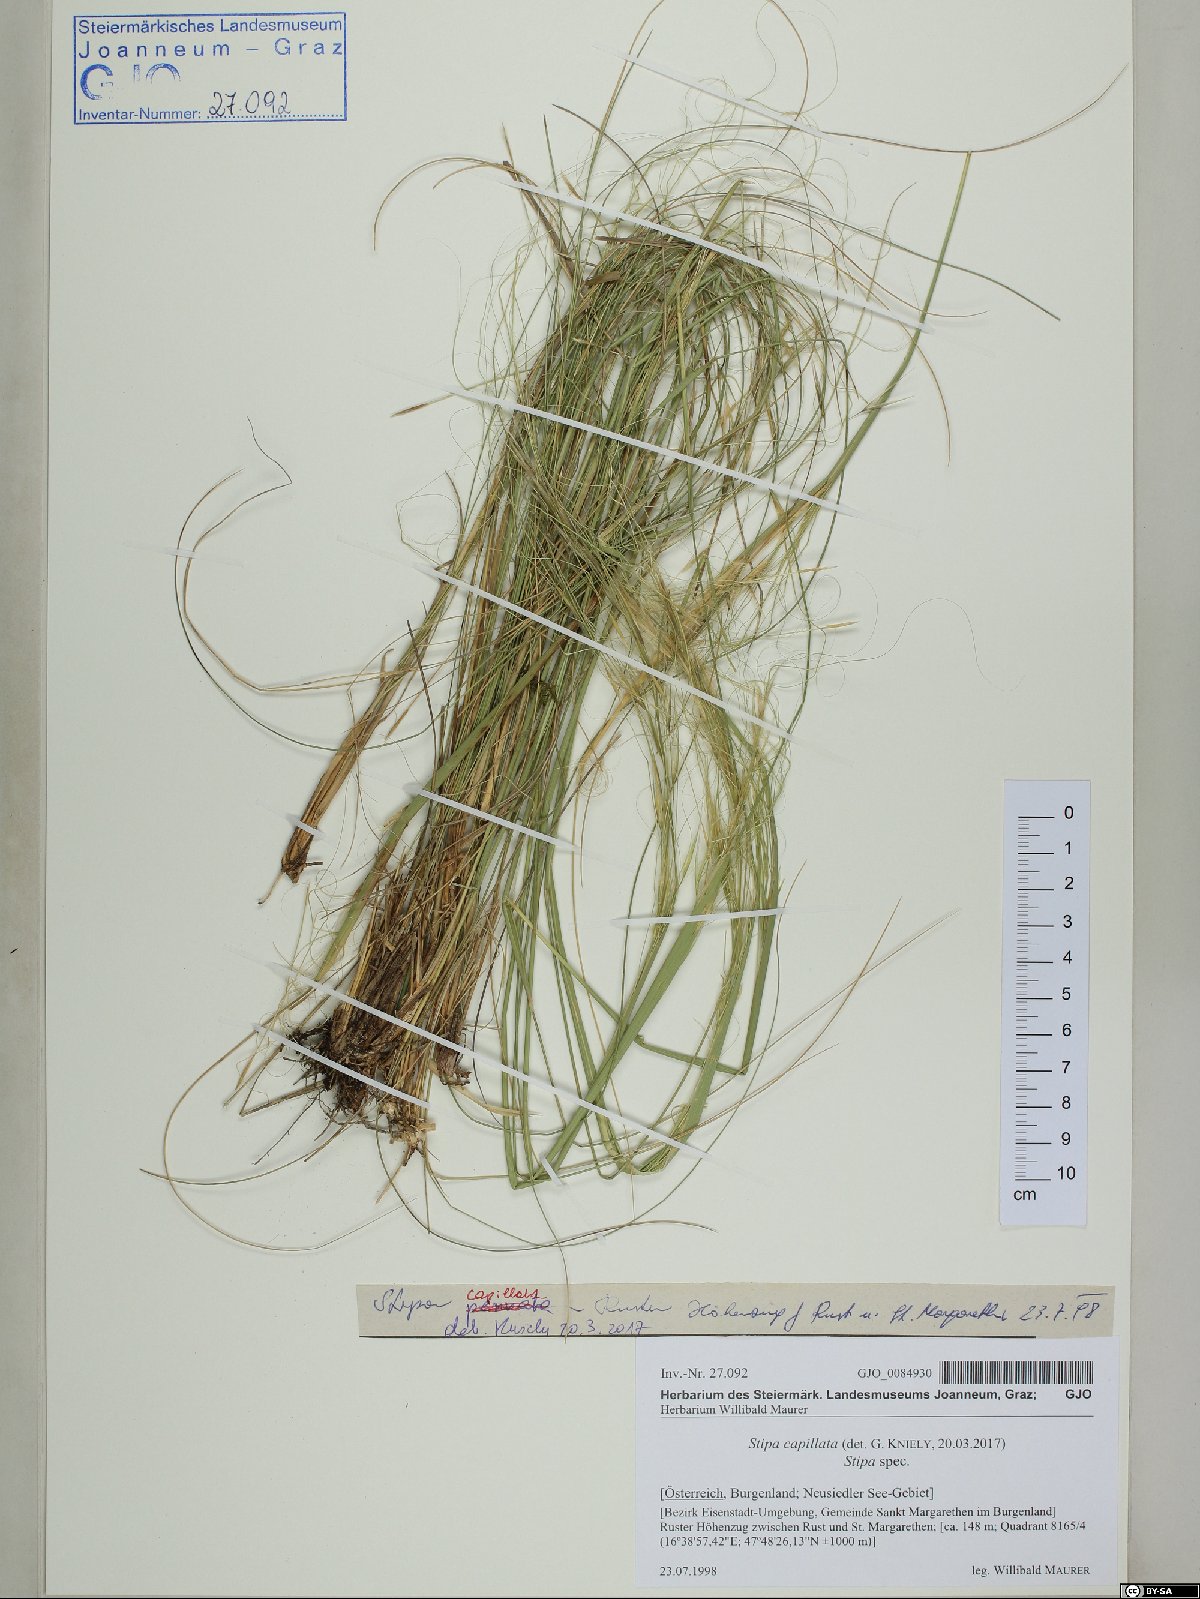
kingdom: Plantae
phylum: Tracheophyta
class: Liliopsida
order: Poales
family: Poaceae
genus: Stipa
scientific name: Stipa capillata
